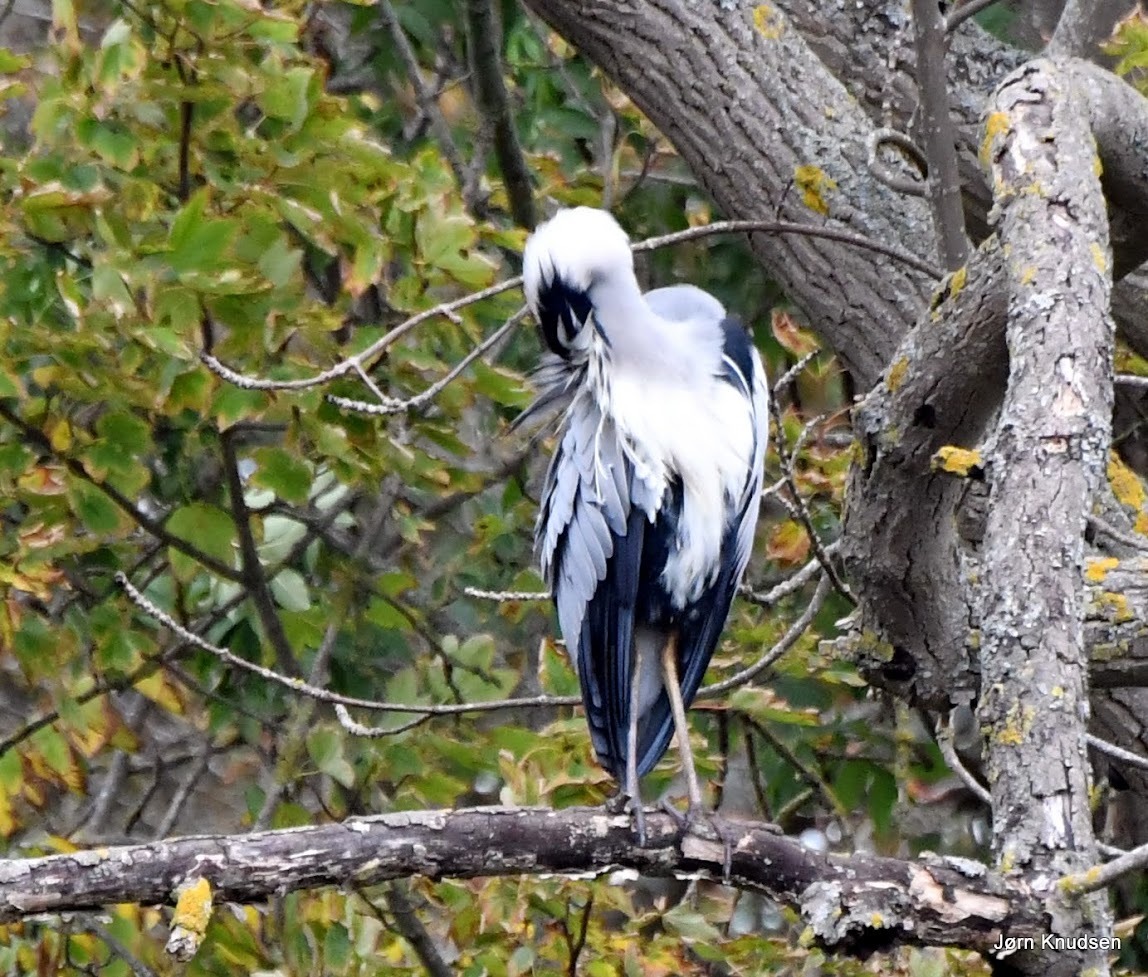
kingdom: Animalia
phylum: Chordata
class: Aves
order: Pelecaniformes
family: Ardeidae
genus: Ardea
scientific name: Ardea cinerea
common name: Fiskehejre
